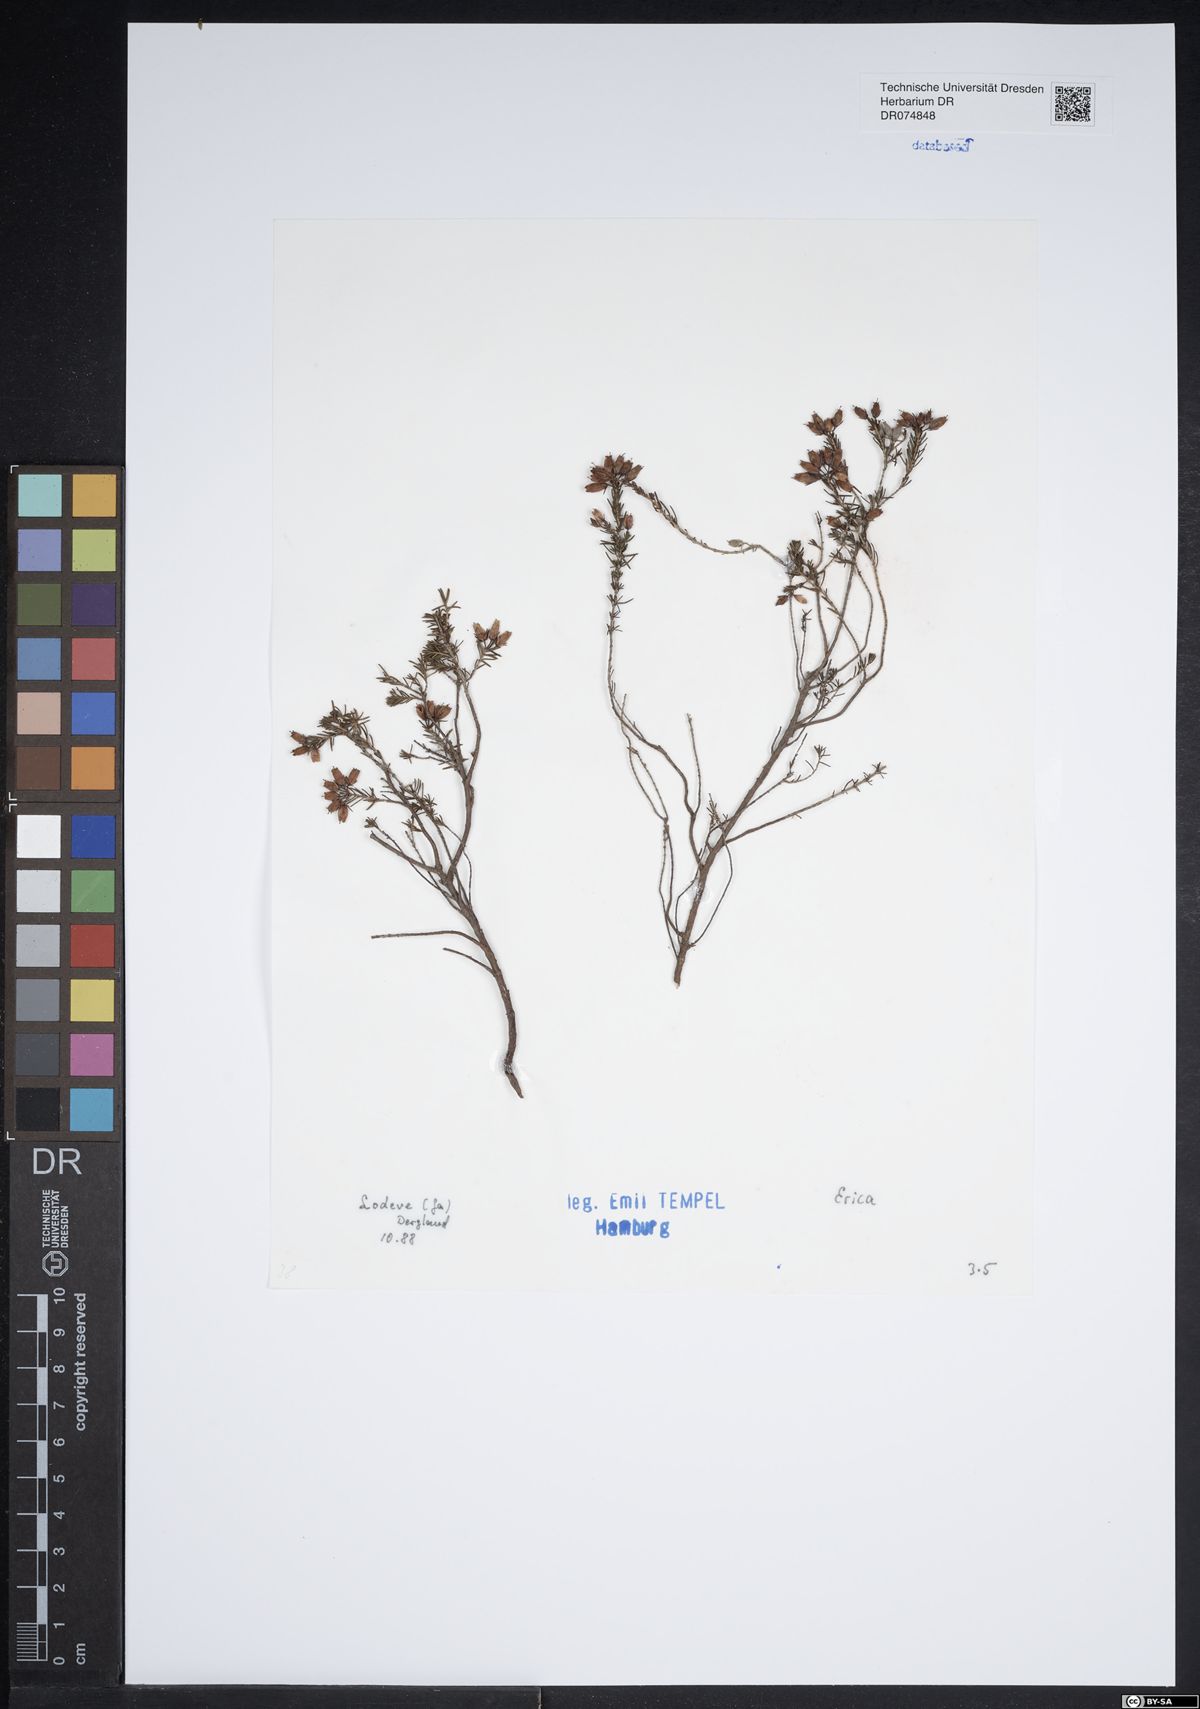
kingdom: Plantae
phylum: Tracheophyta
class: Magnoliopsida
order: Ericales
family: Ericaceae
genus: Erica
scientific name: Erica
